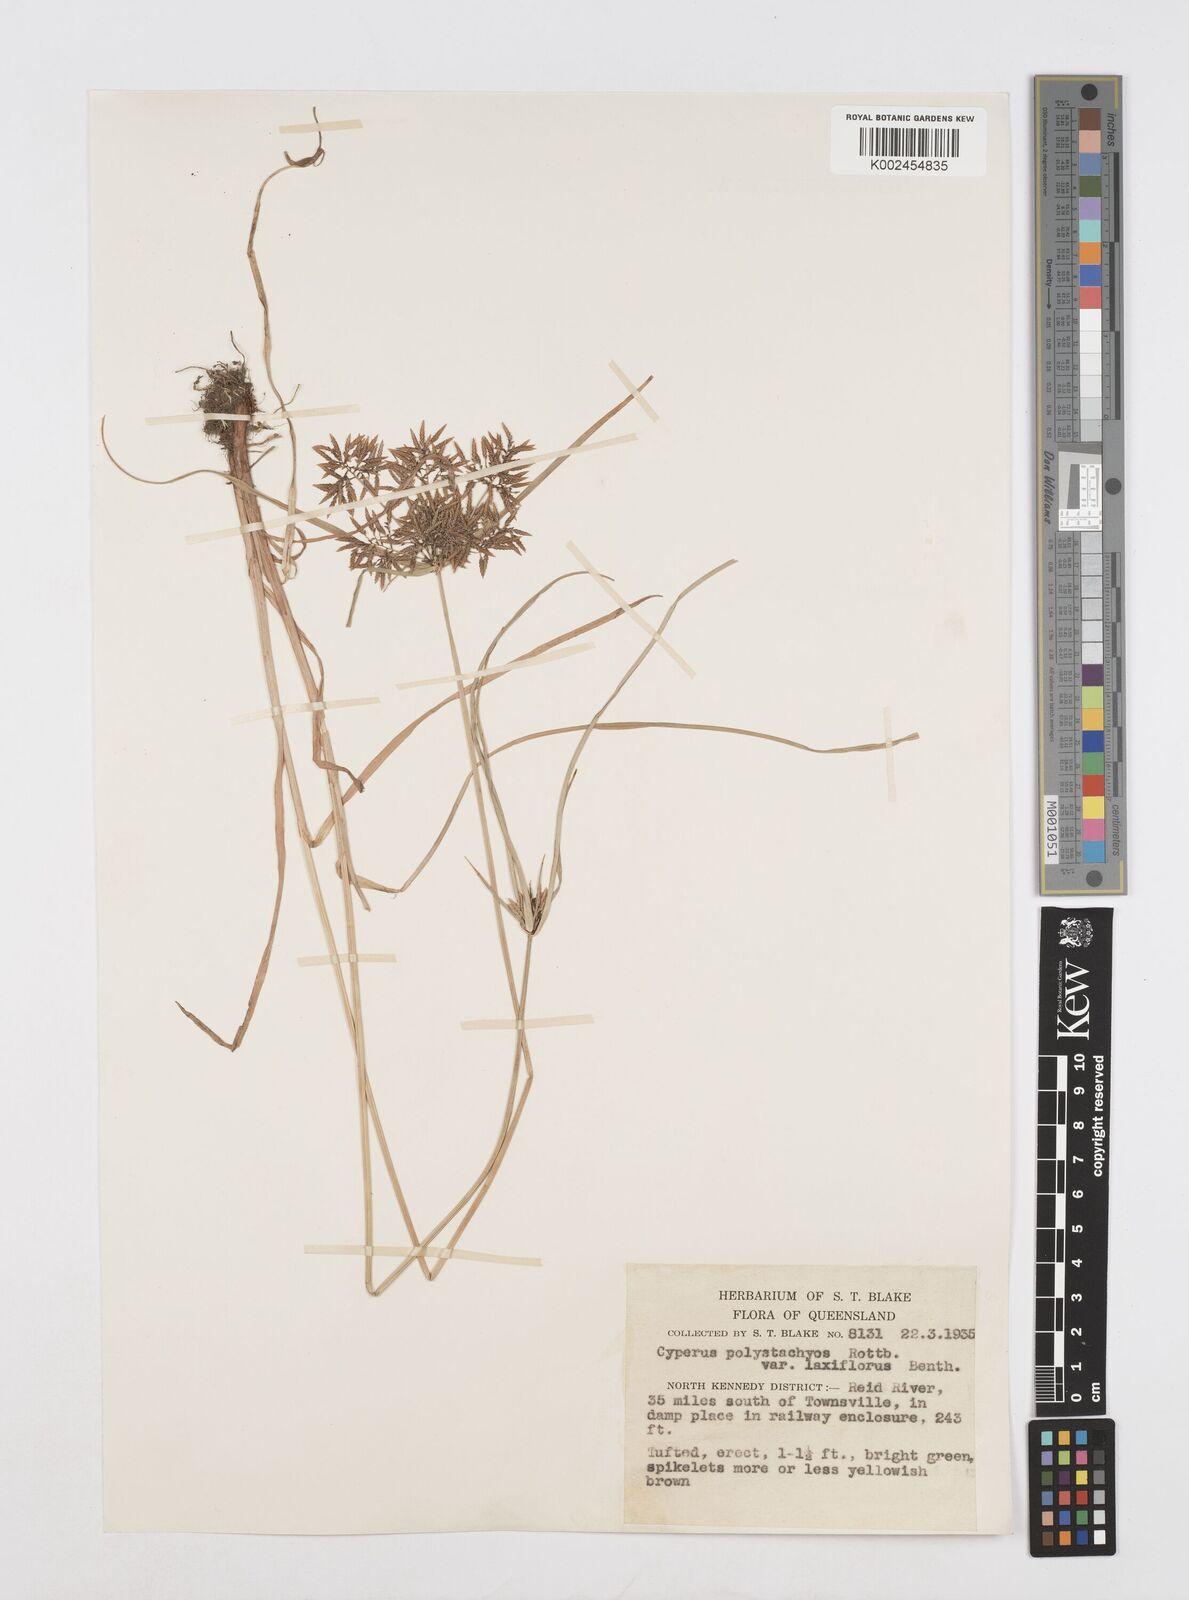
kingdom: Plantae
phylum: Tracheophyta
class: Liliopsida
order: Poales
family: Cyperaceae
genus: Cyperus
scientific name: Cyperus polystachyos
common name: Bunchy flat sedge
